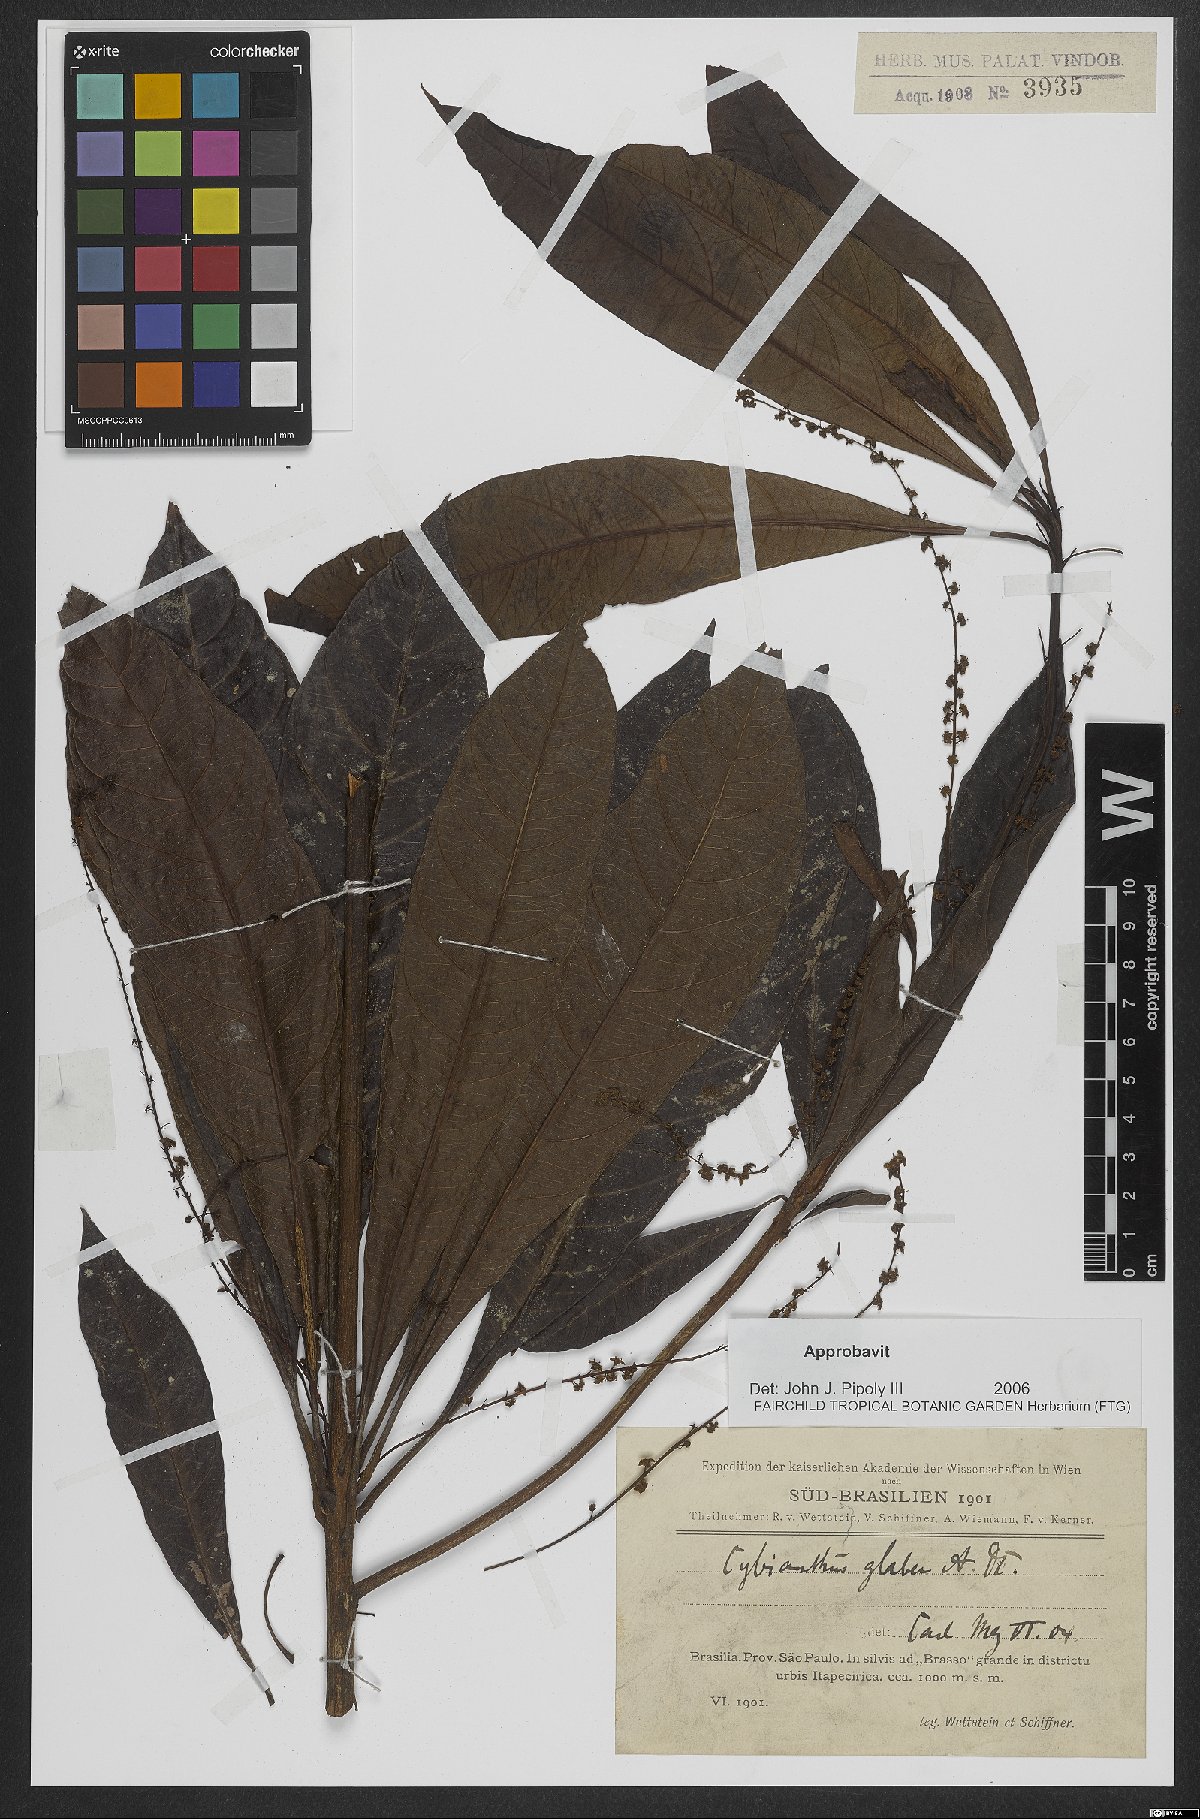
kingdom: Plantae
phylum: Tracheophyta
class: Magnoliopsida
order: Ericales
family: Primulaceae
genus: Cybianthus
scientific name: Cybianthus klotzschii
